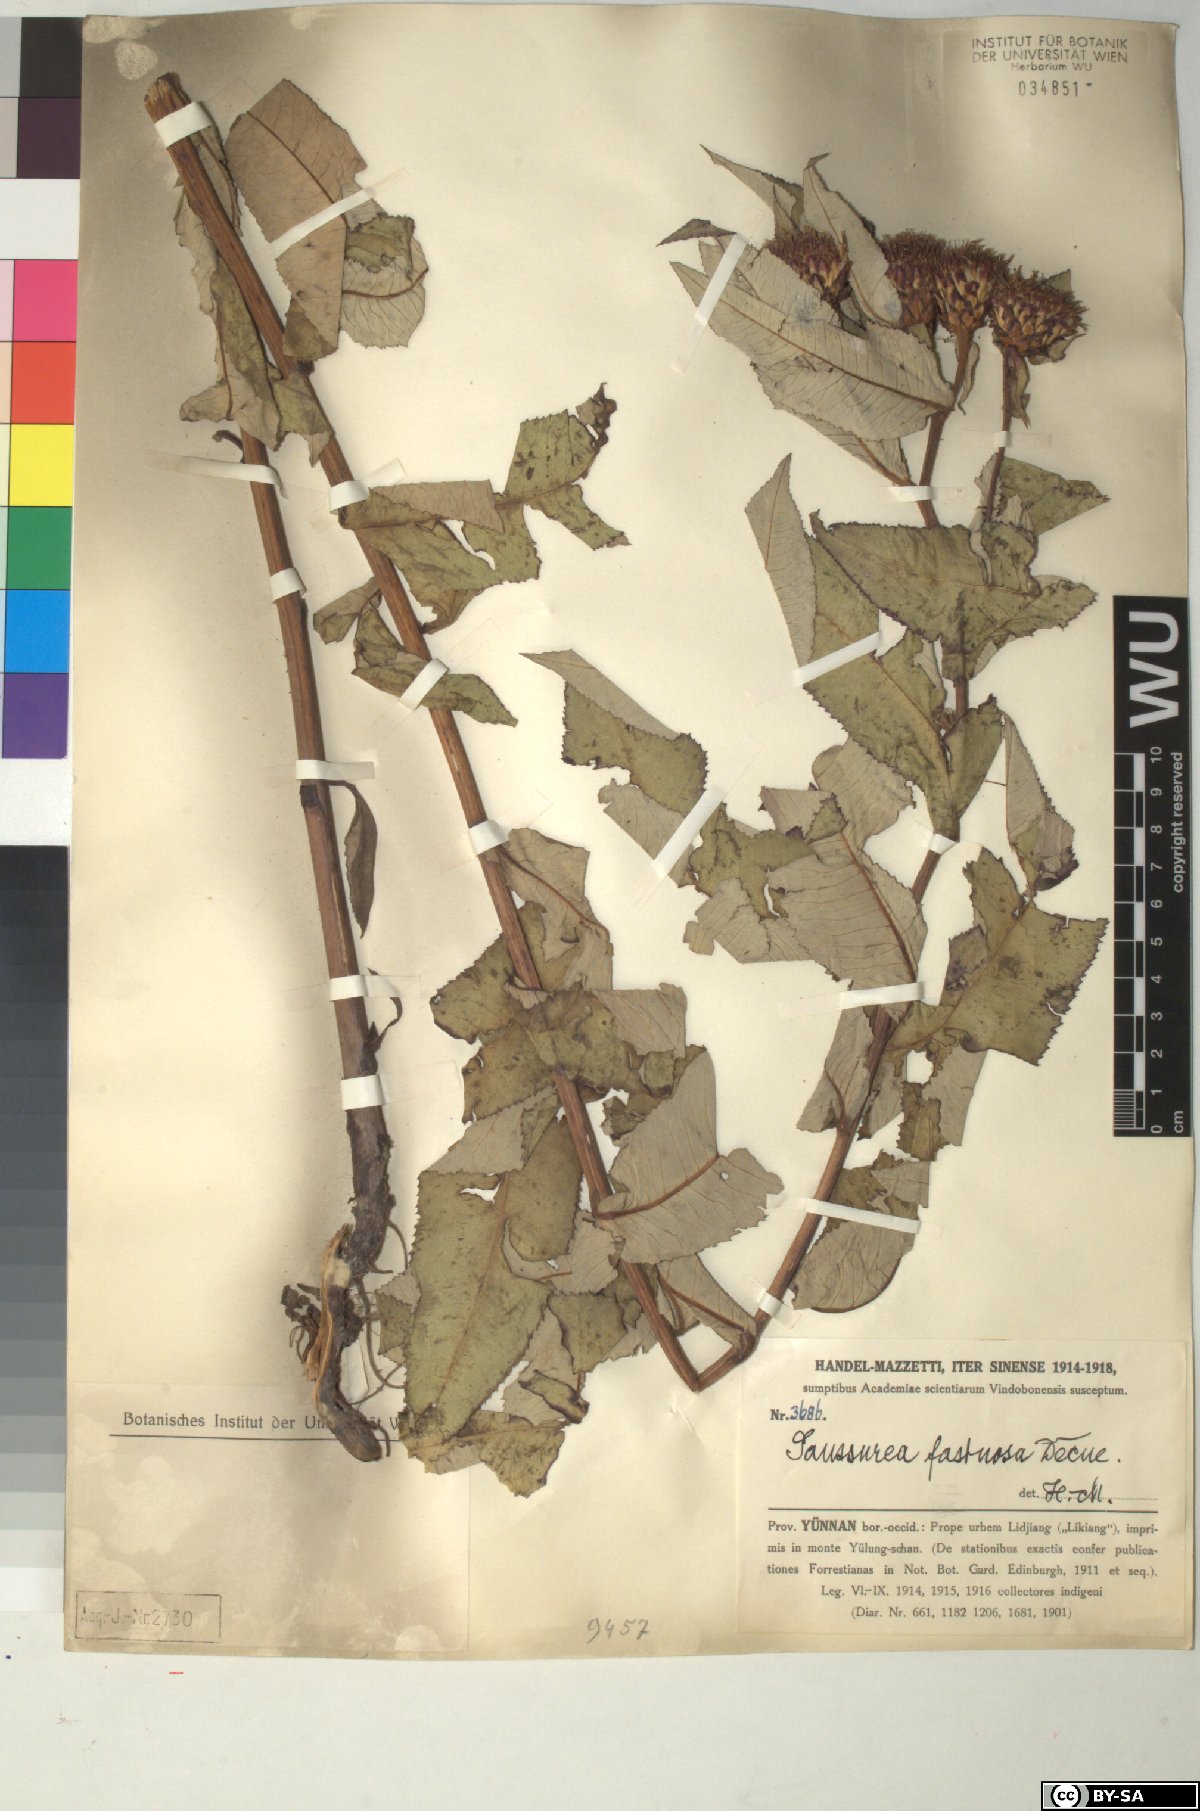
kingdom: Plantae
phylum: Tracheophyta
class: Magnoliopsida
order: Asterales
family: Asteraceae
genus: Shangwua
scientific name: Shangwua denticulata
